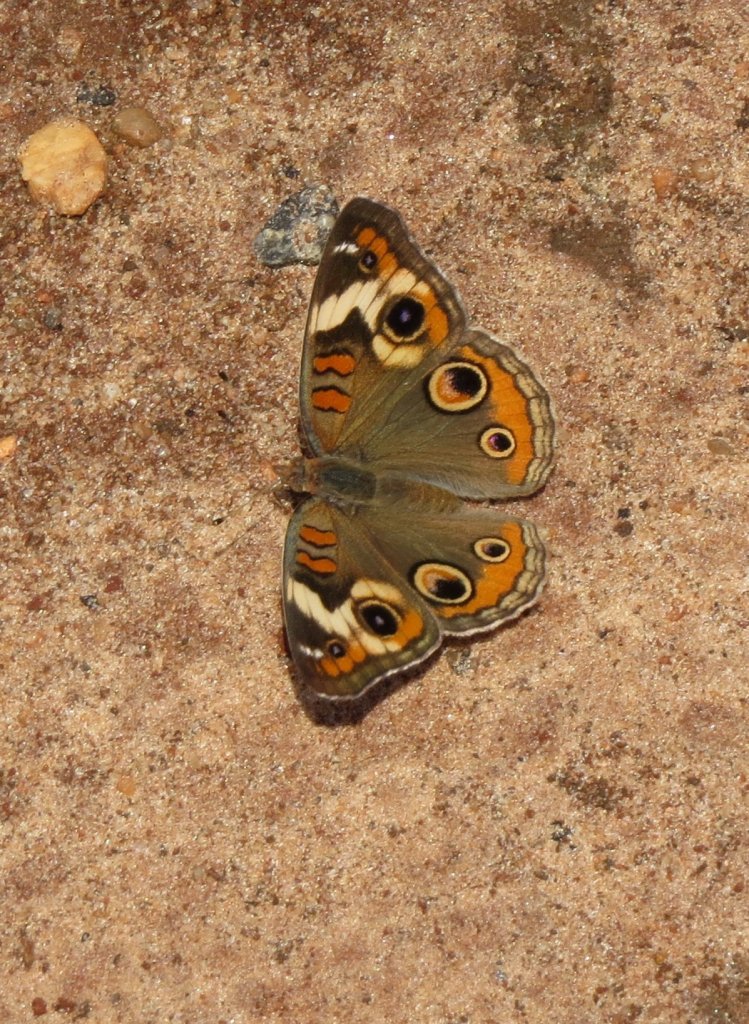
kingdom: Animalia
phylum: Arthropoda
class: Insecta
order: Lepidoptera
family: Nymphalidae
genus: Junonia
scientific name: Junonia coenia
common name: Common Buckeye
